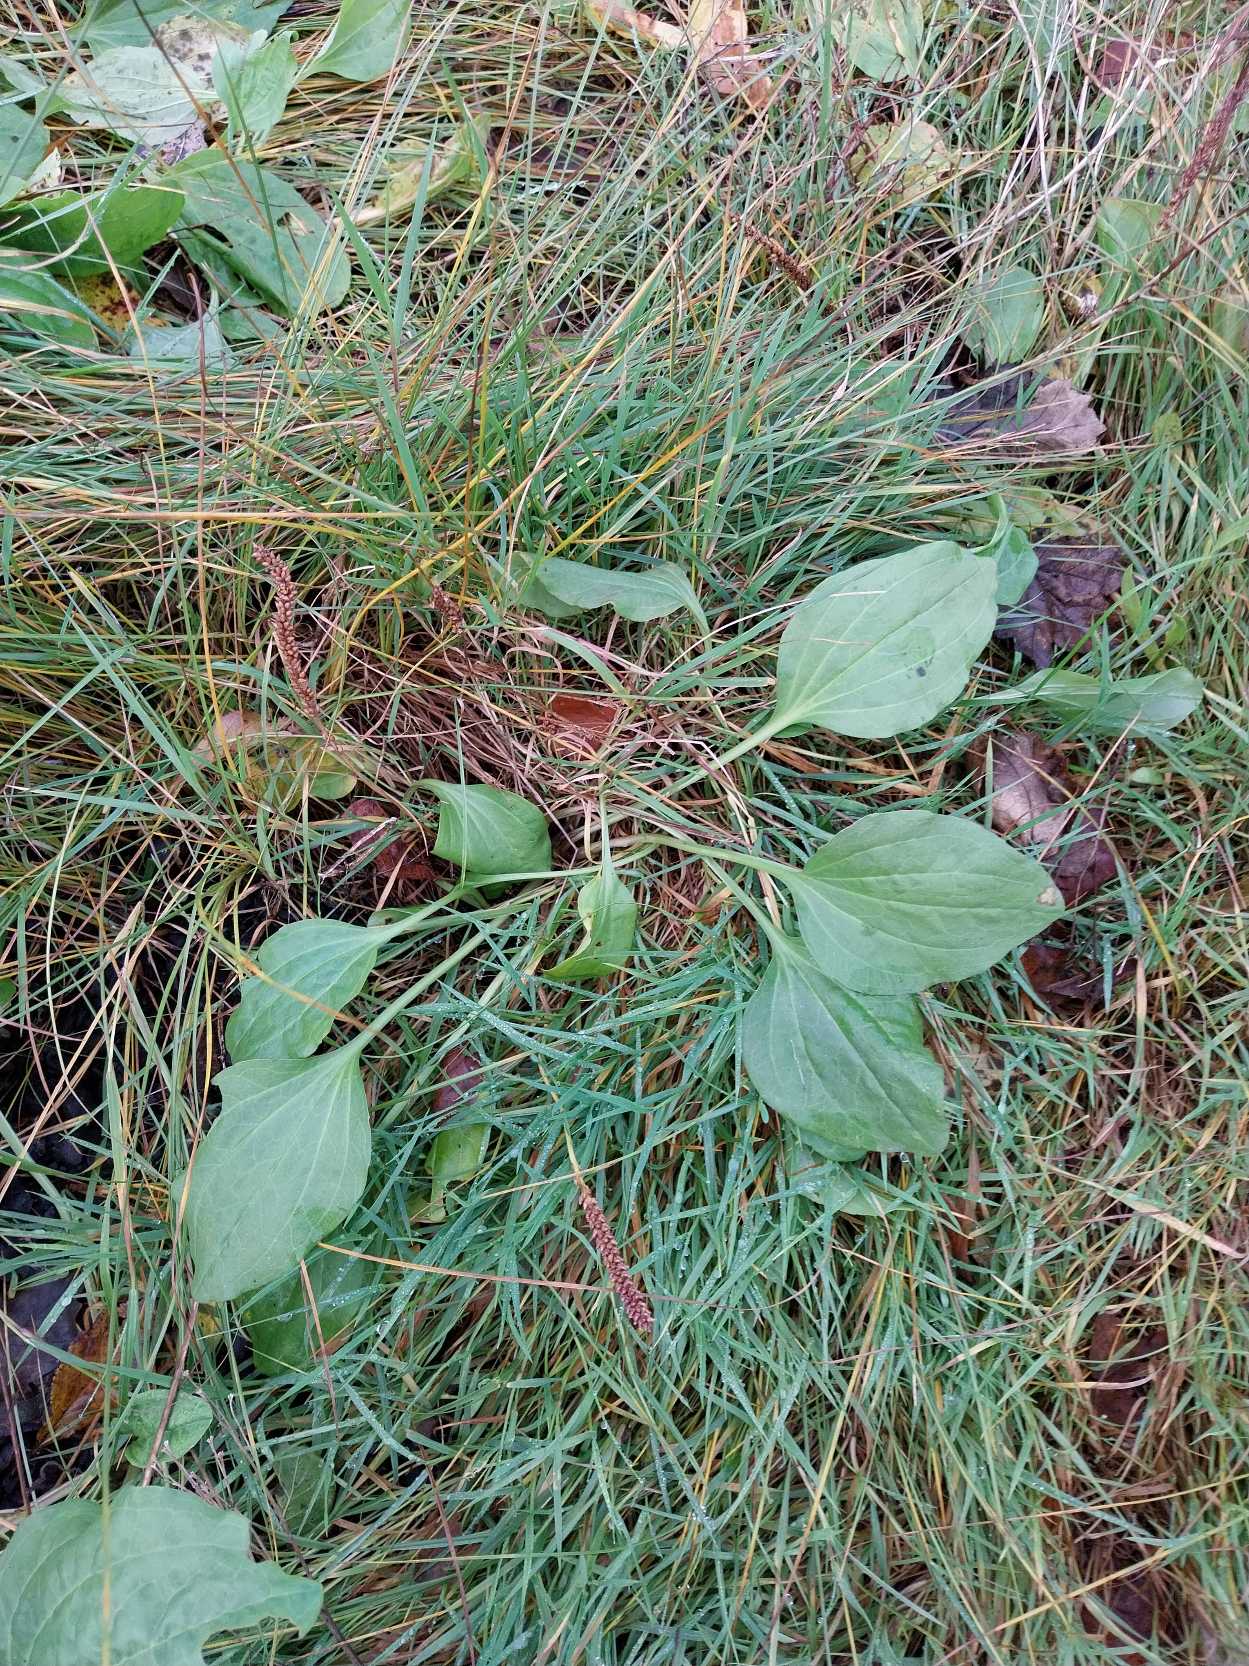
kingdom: Plantae
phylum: Tracheophyta
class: Magnoliopsida
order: Lamiales
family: Plantaginaceae
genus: Plantago
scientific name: Plantago major
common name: Glat vejbred
